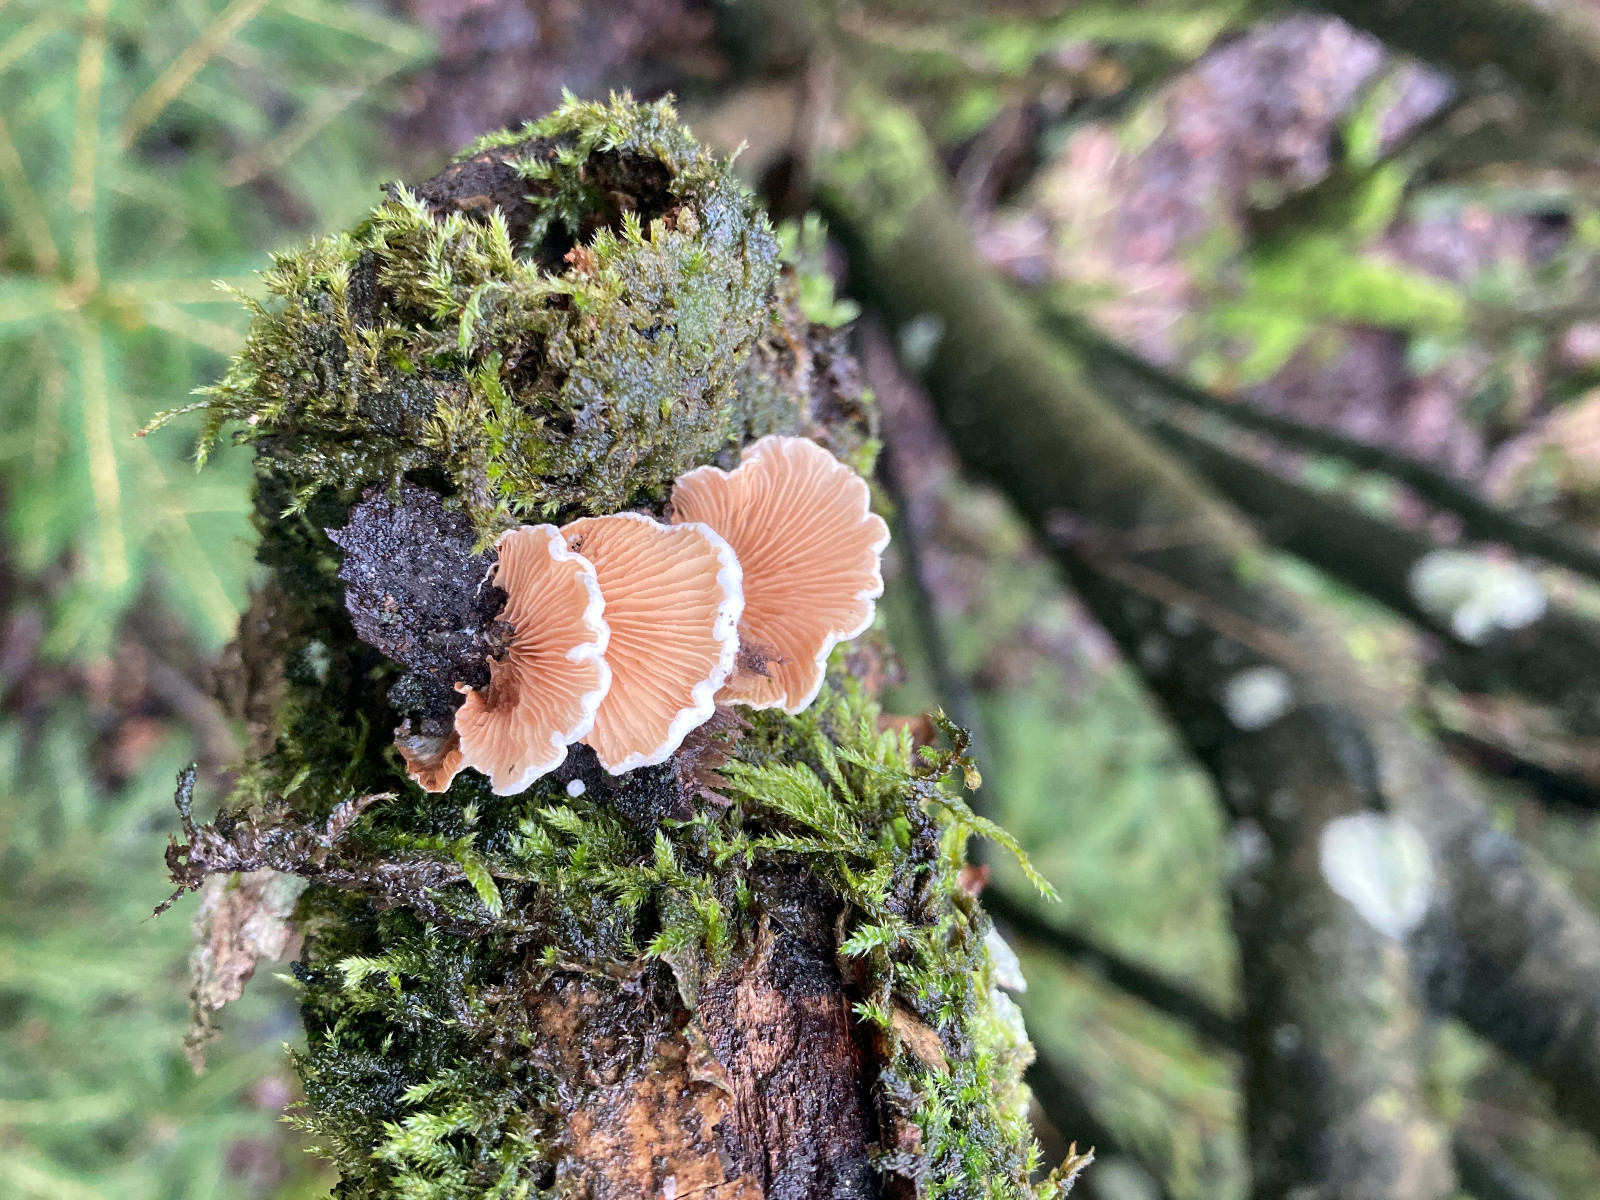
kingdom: Fungi
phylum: Basidiomycota
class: Agaricomycetes
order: Agaricales
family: Mycenaceae
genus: Panellus
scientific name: Panellus stipticus
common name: kliddet epaulethat
